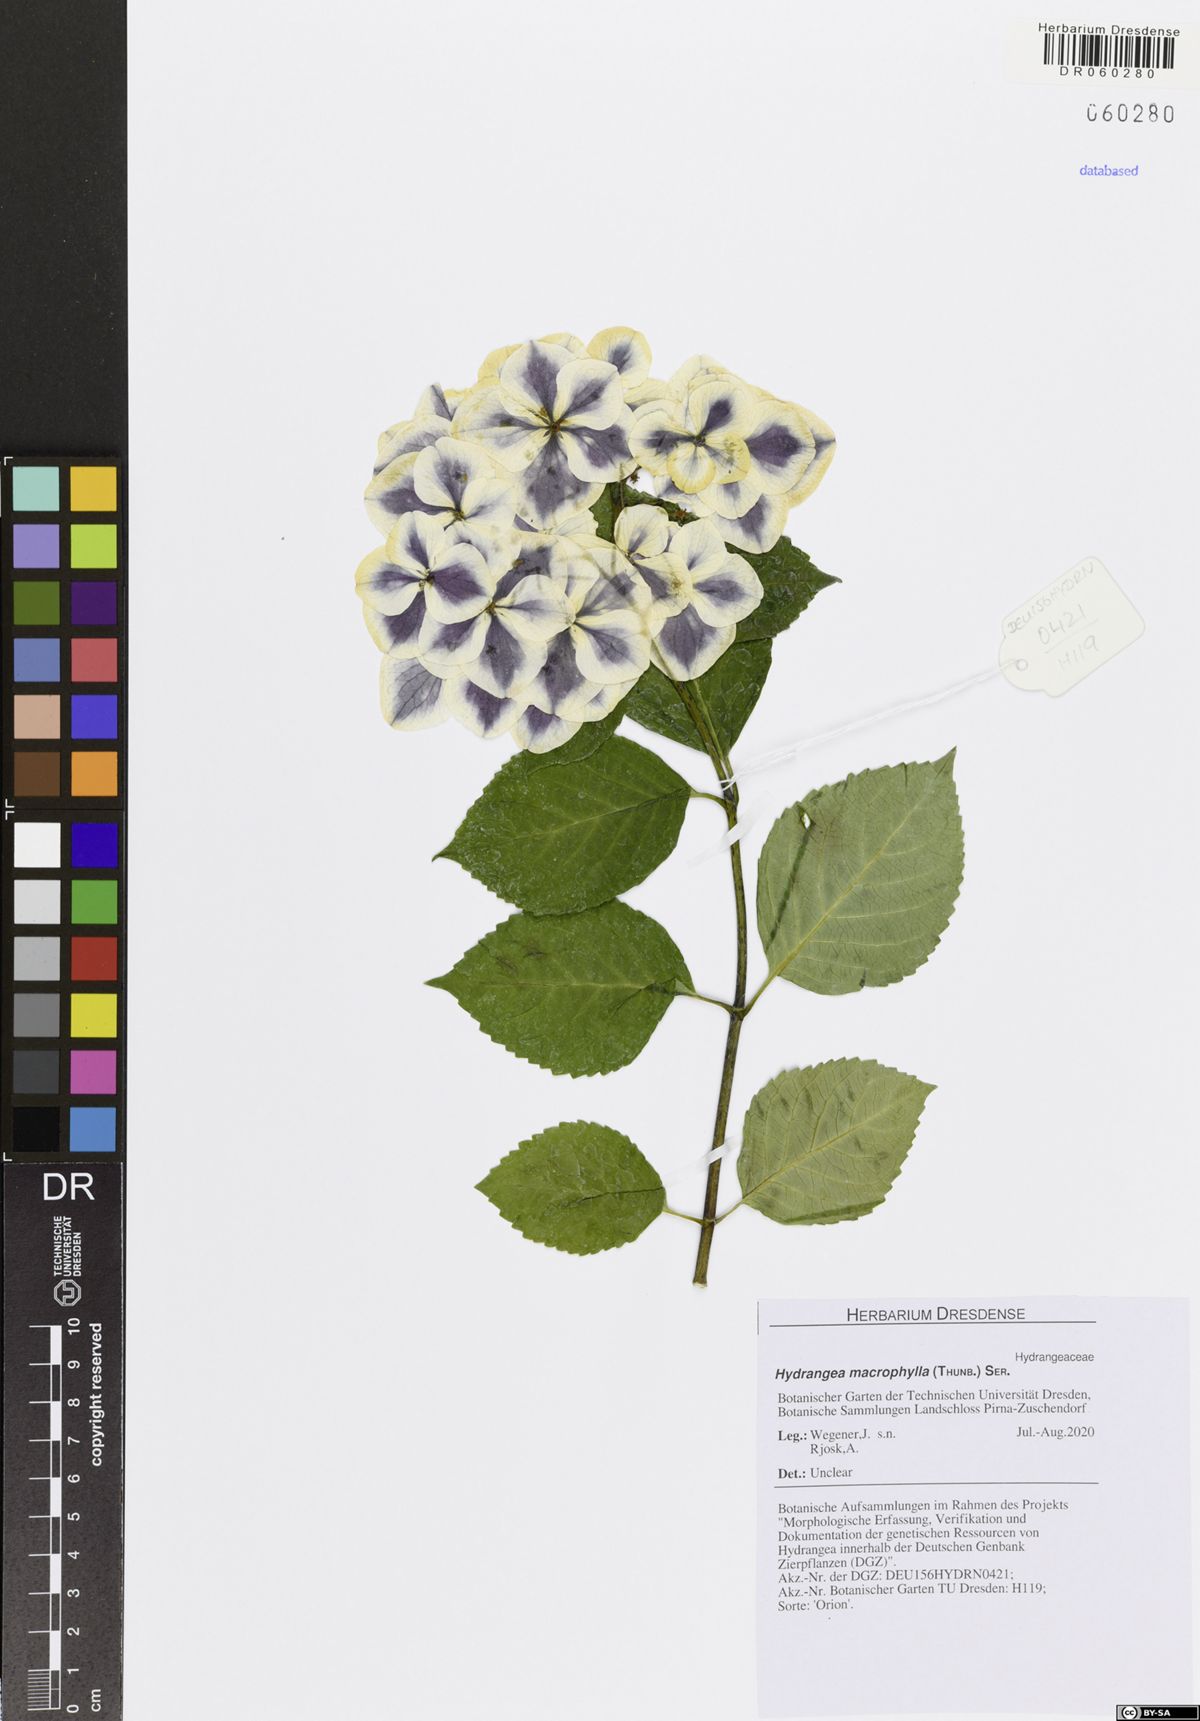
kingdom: Plantae
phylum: Tracheophyta
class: Magnoliopsida
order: Cornales
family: Hydrangeaceae
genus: Hydrangea
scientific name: Hydrangea macrophylla
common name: Hydrangea
